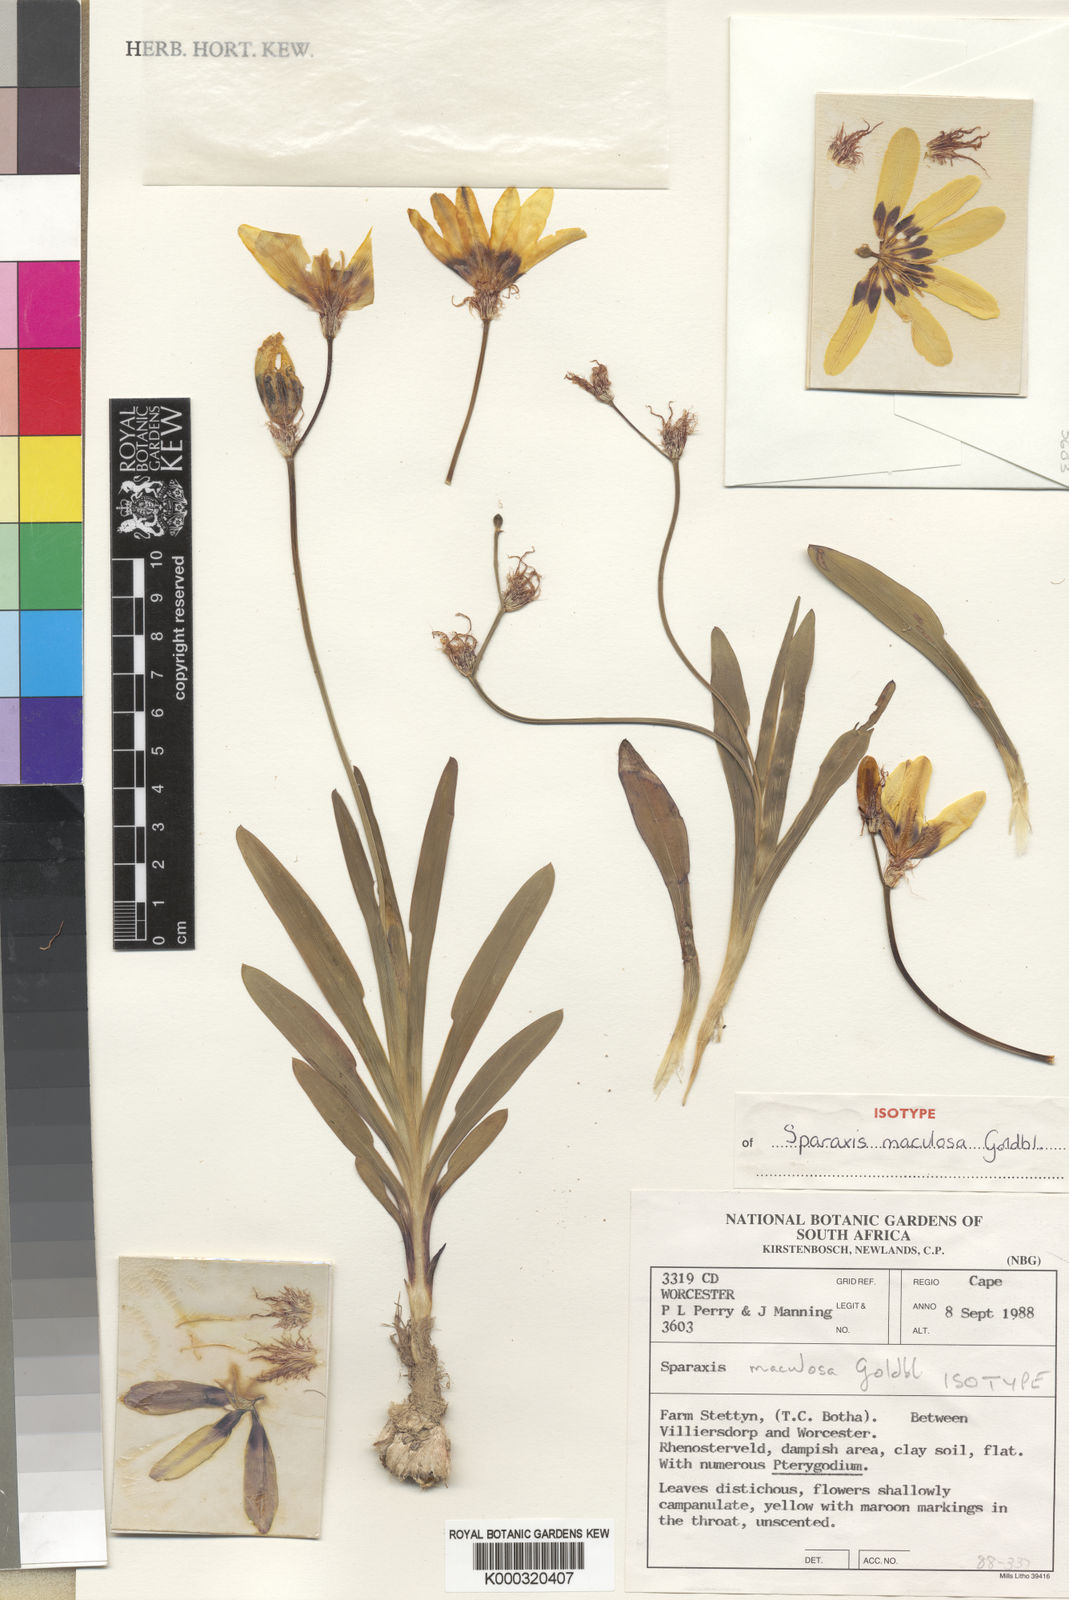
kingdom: Plantae
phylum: Tracheophyta
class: Liliopsida
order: Asparagales
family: Iridaceae
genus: Sparaxis
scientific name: Sparaxis maculosa
